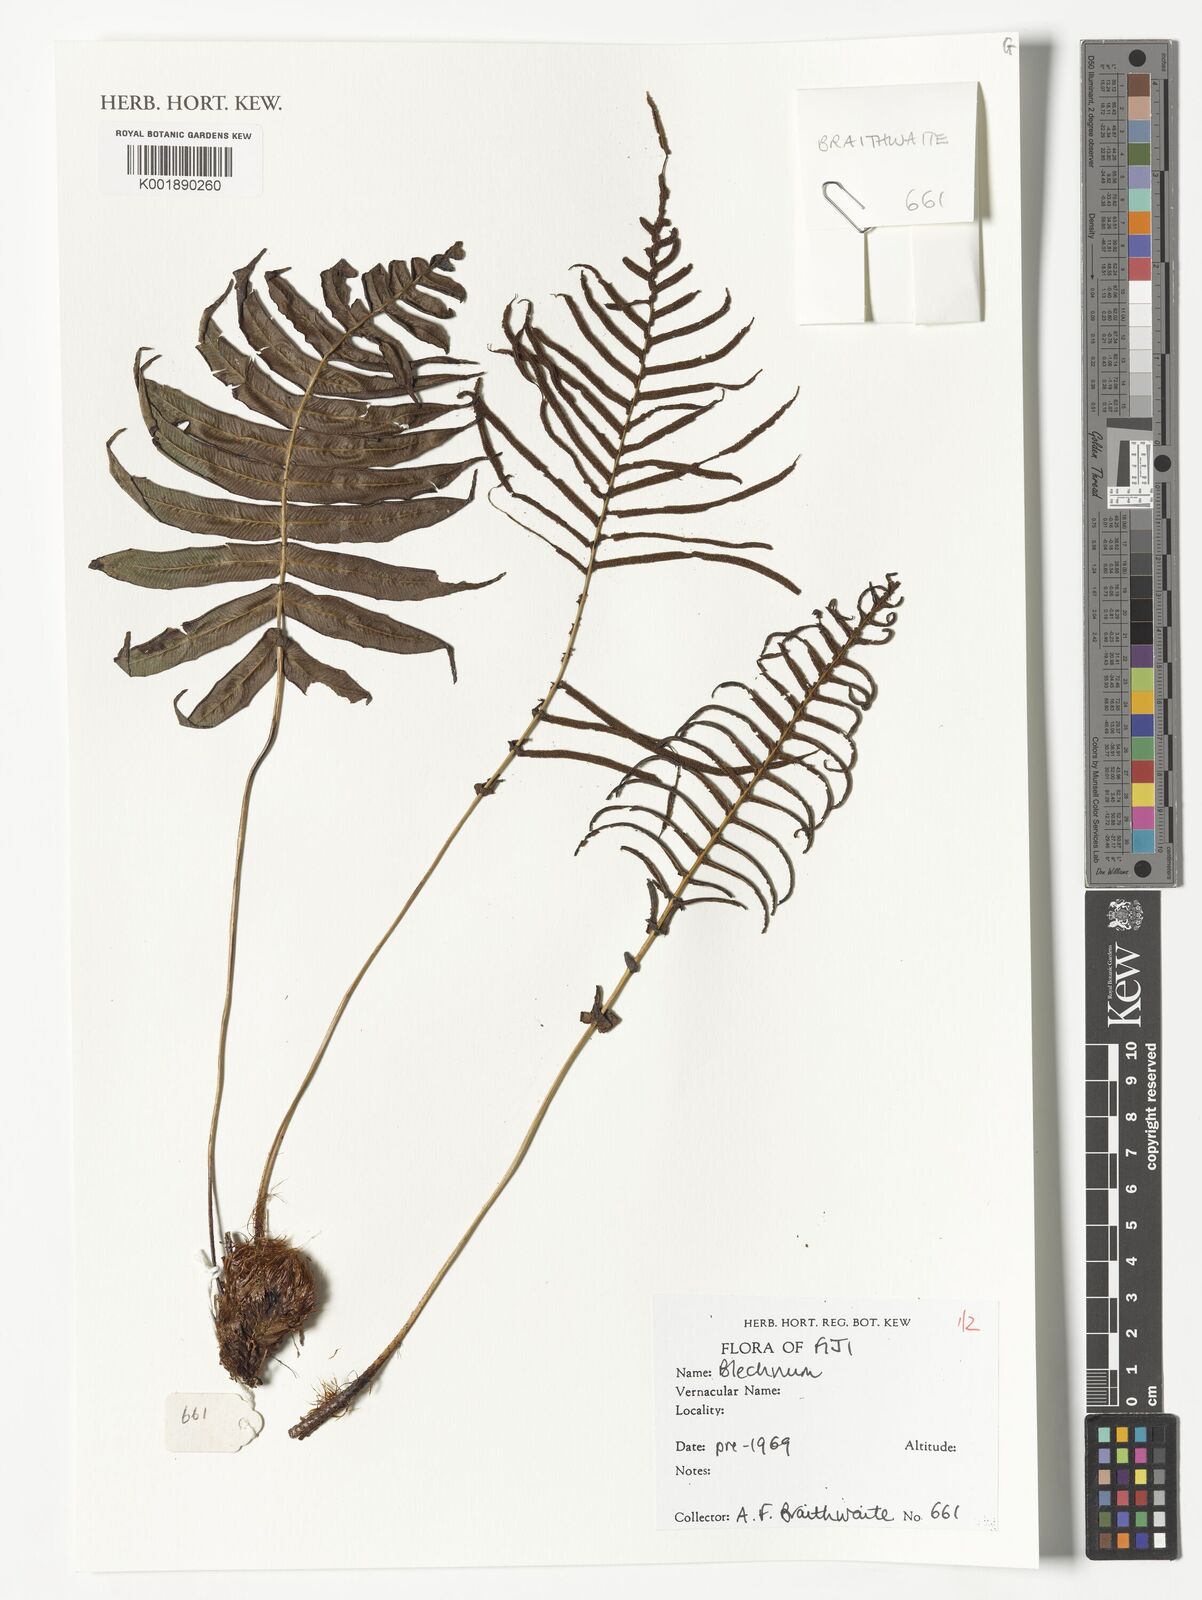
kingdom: Plantae
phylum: Tracheophyta
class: Polypodiopsida
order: Polypodiales
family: Blechnaceae
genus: Blechnum
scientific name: Blechnum
